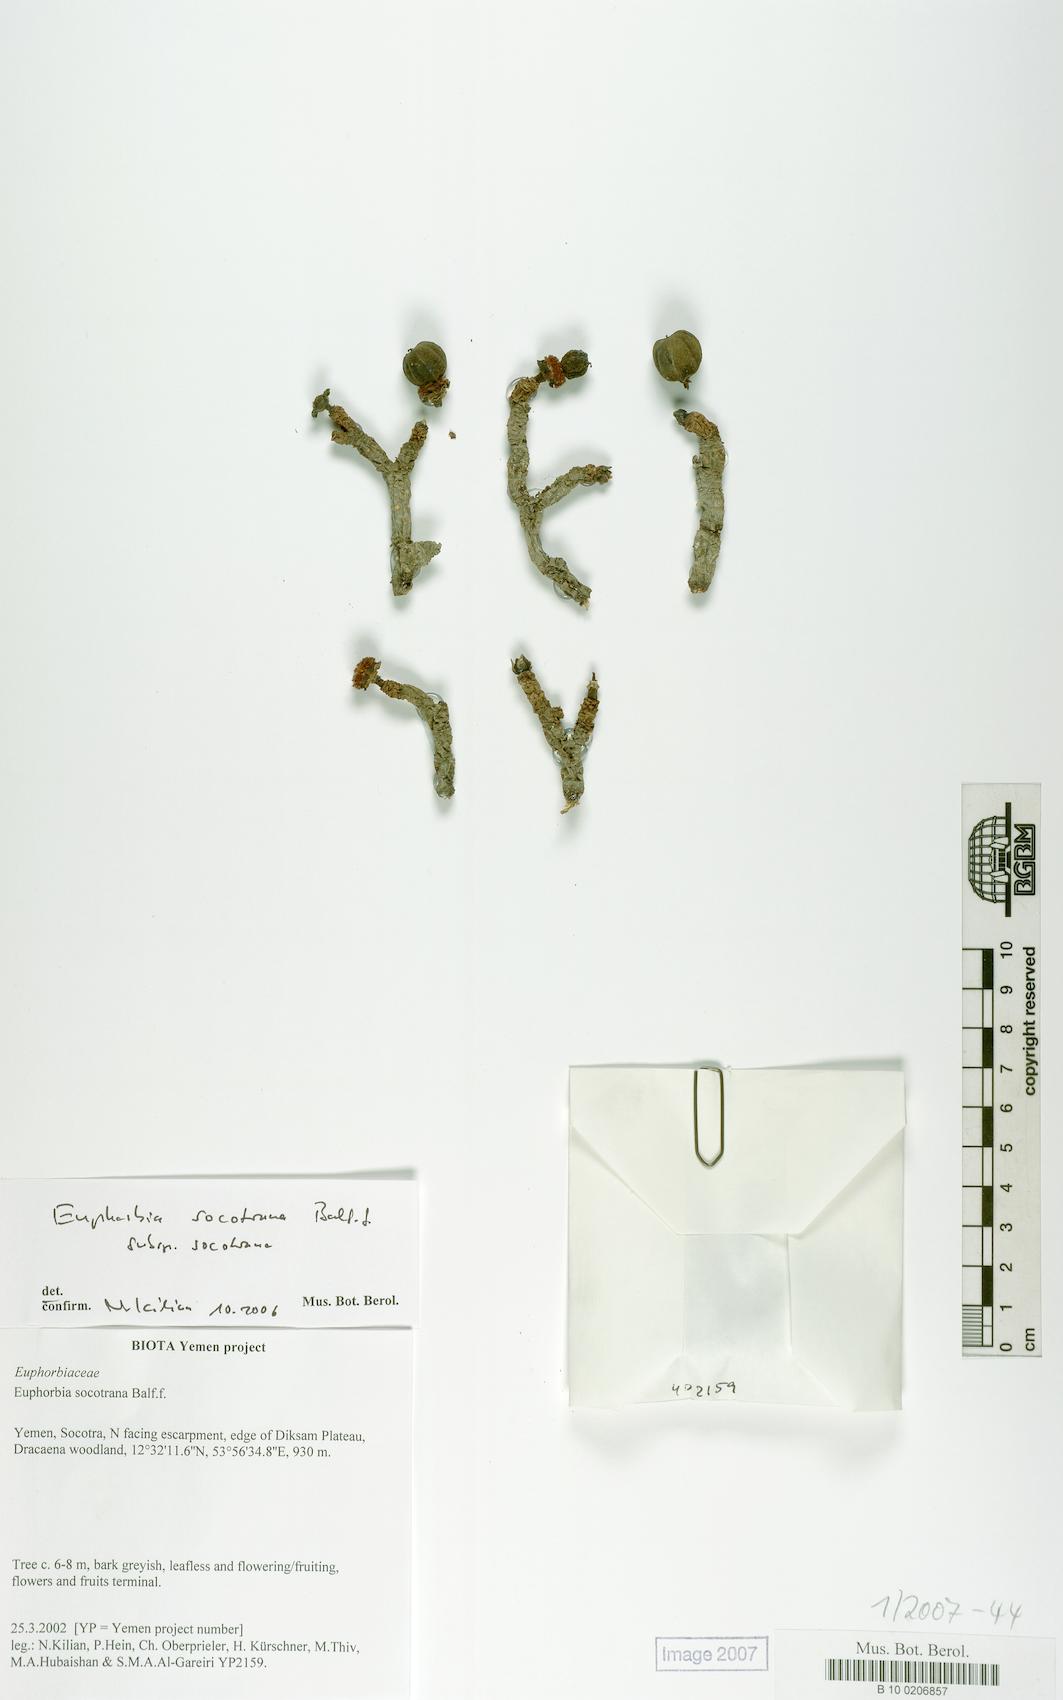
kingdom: Plantae
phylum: Tracheophyta
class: Magnoliopsida
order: Malpighiales
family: Euphorbiaceae
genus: Euphorbia
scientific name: Euphorbia socotrana
